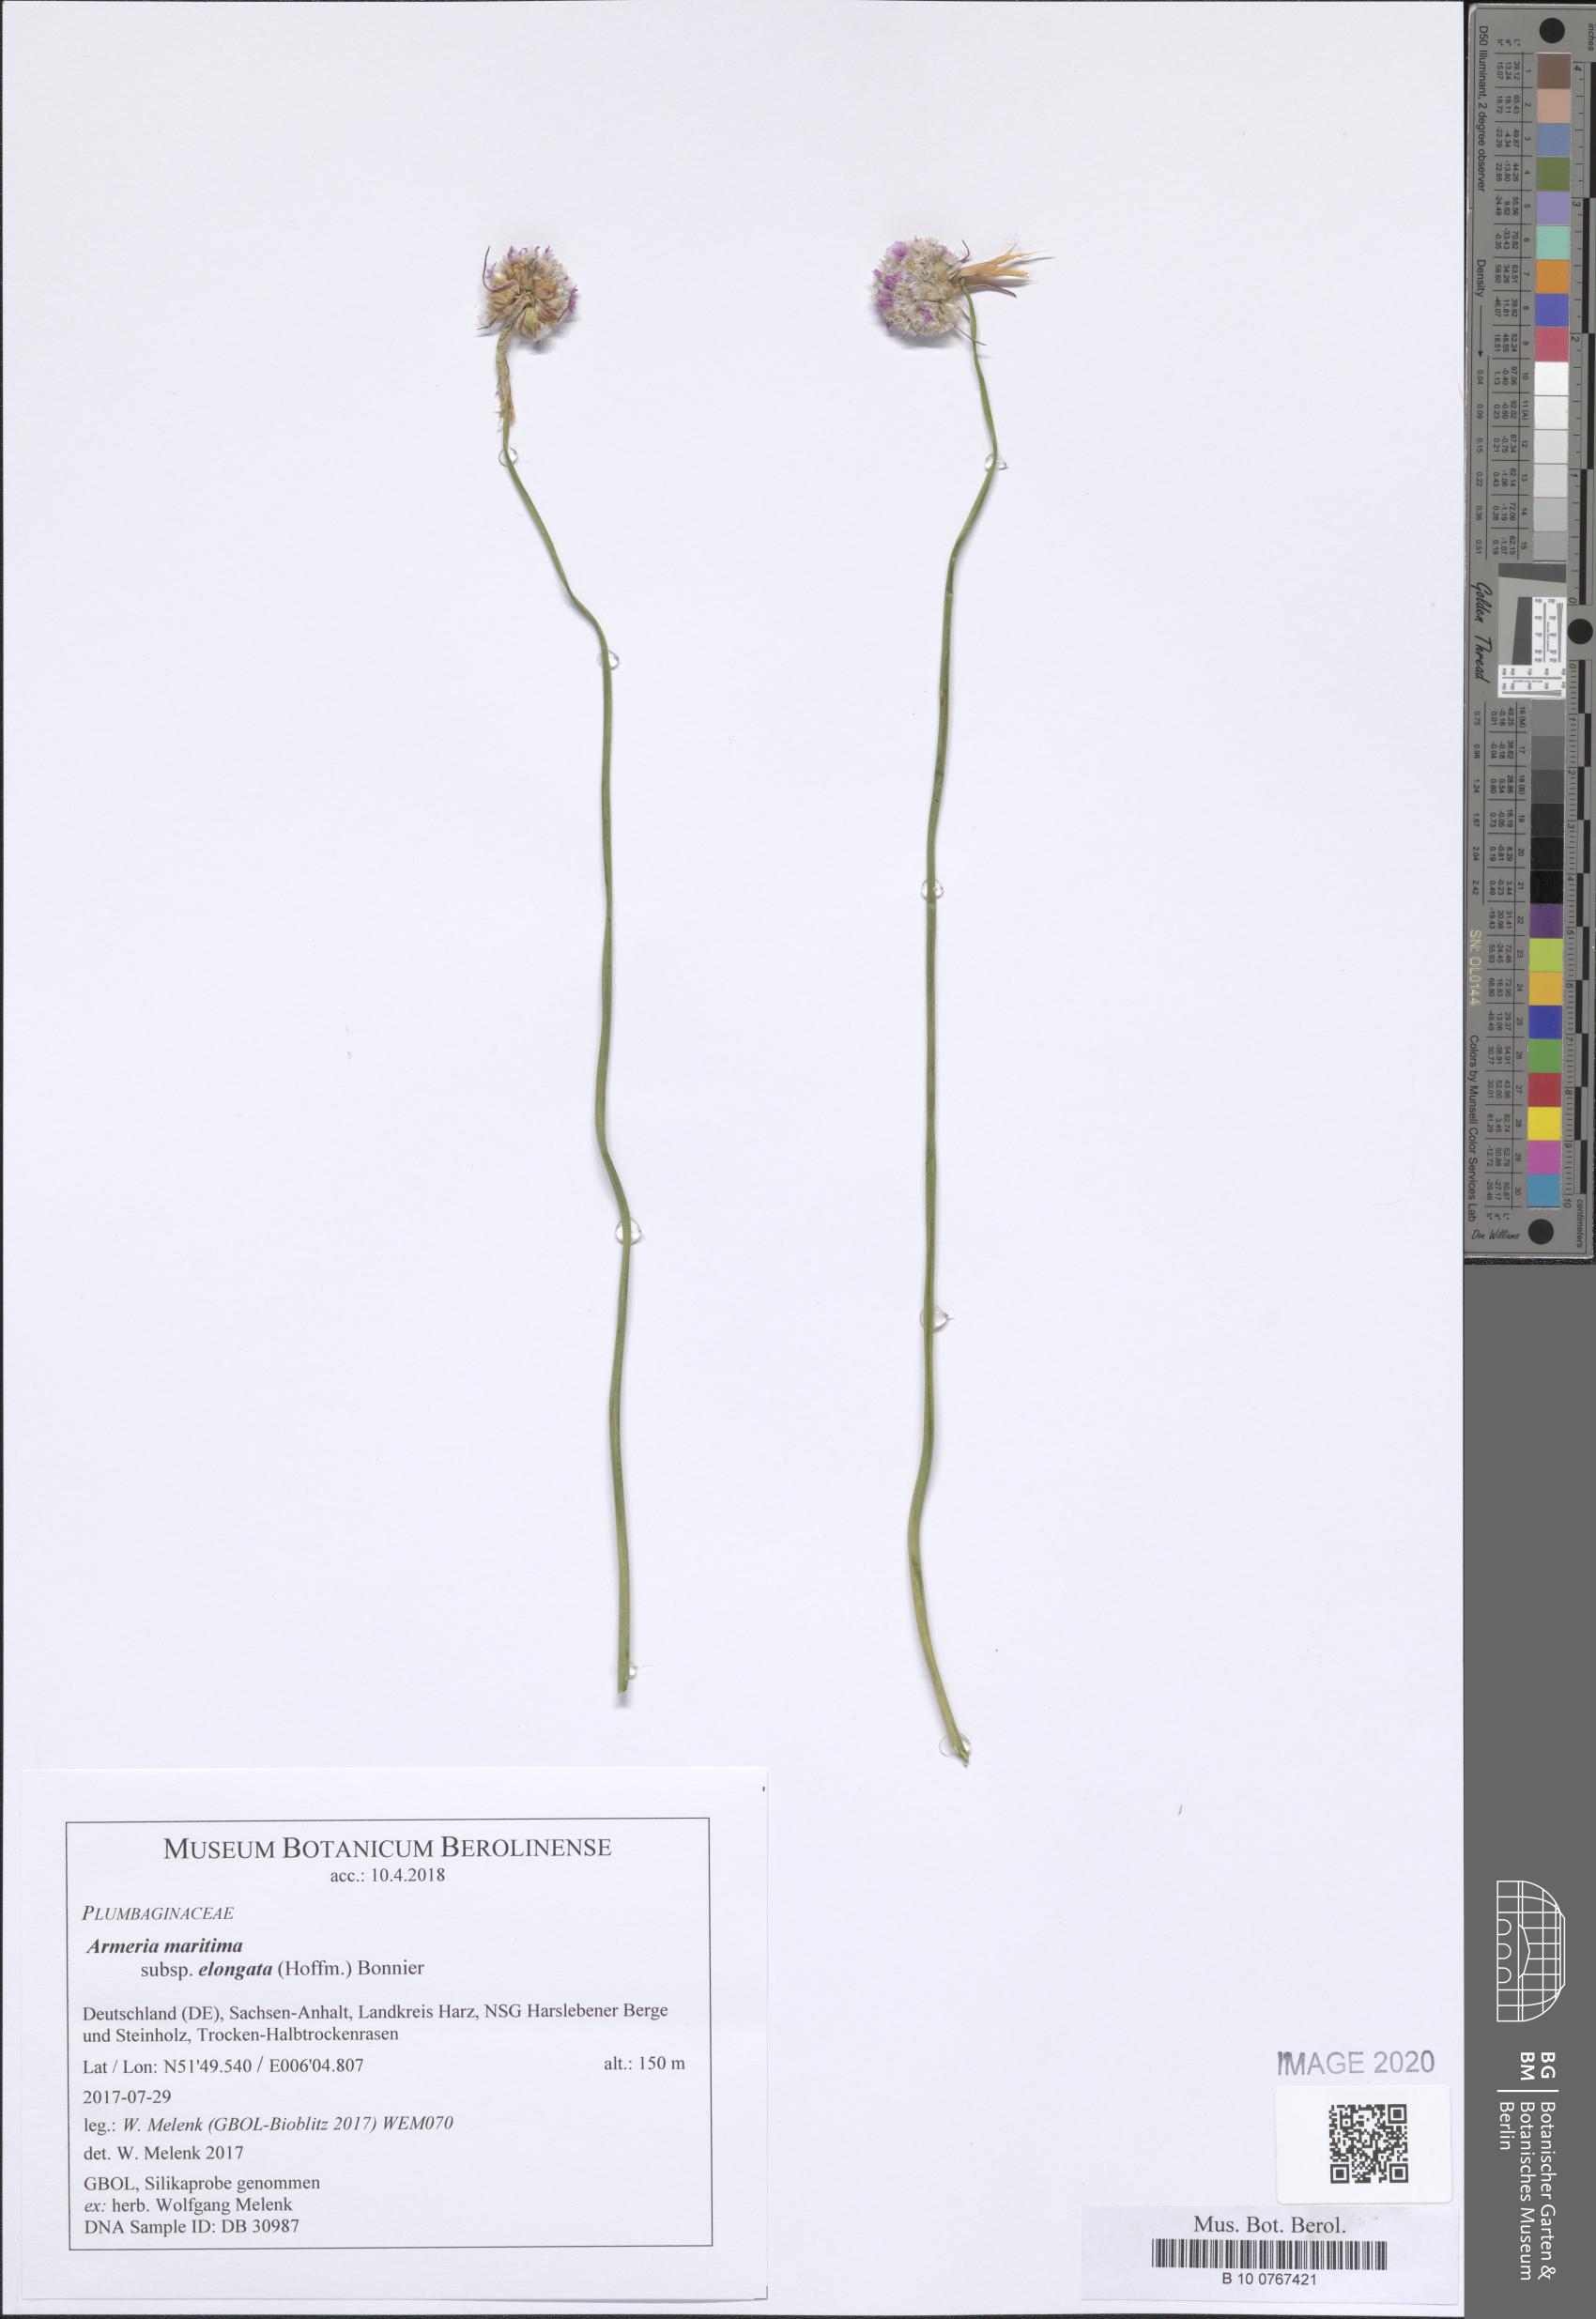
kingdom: Plantae
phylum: Tracheophyta
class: Magnoliopsida
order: Caryophyllales
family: Plumbaginaceae
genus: Armeria
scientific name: Armeria maritima
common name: Thrift
